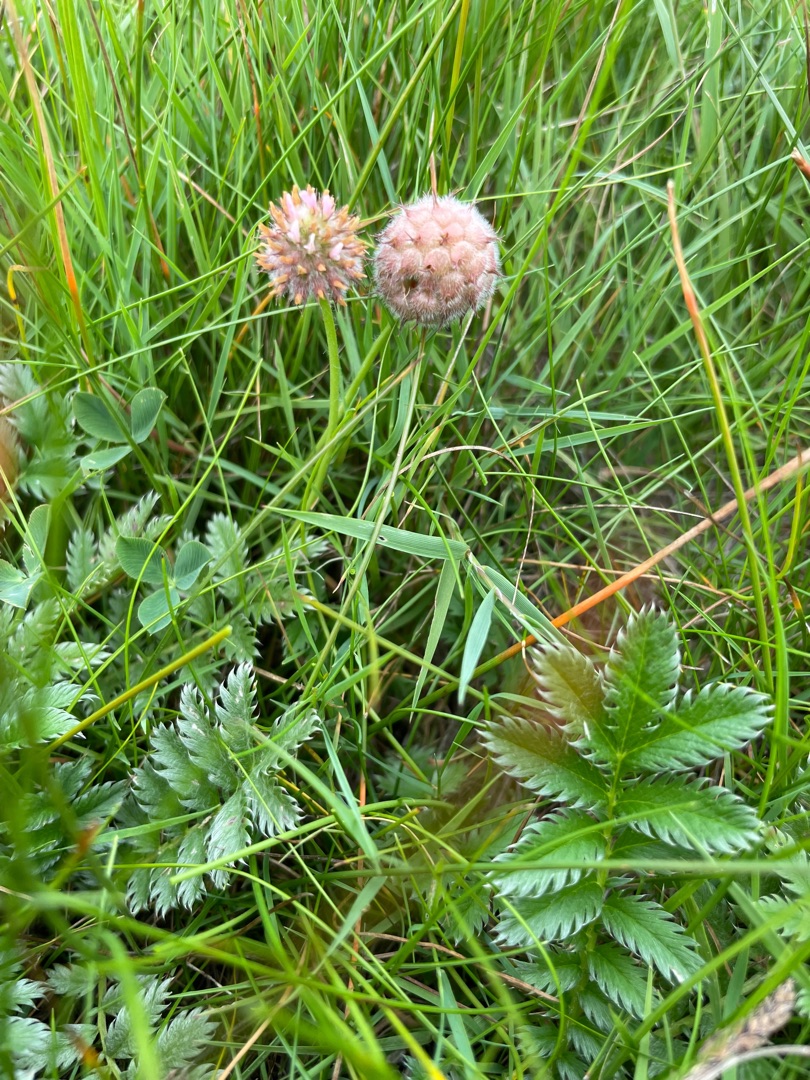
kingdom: Plantae
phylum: Tracheophyta
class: Magnoliopsida
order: Fabales
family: Fabaceae
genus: Trifolium
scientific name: Trifolium fragiferum
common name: Jordbær-kløver
